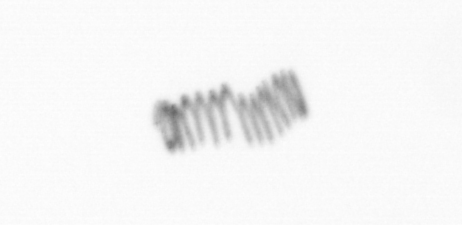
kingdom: Chromista
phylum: Ochrophyta
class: Bacillariophyceae
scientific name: Bacillariophyceae
